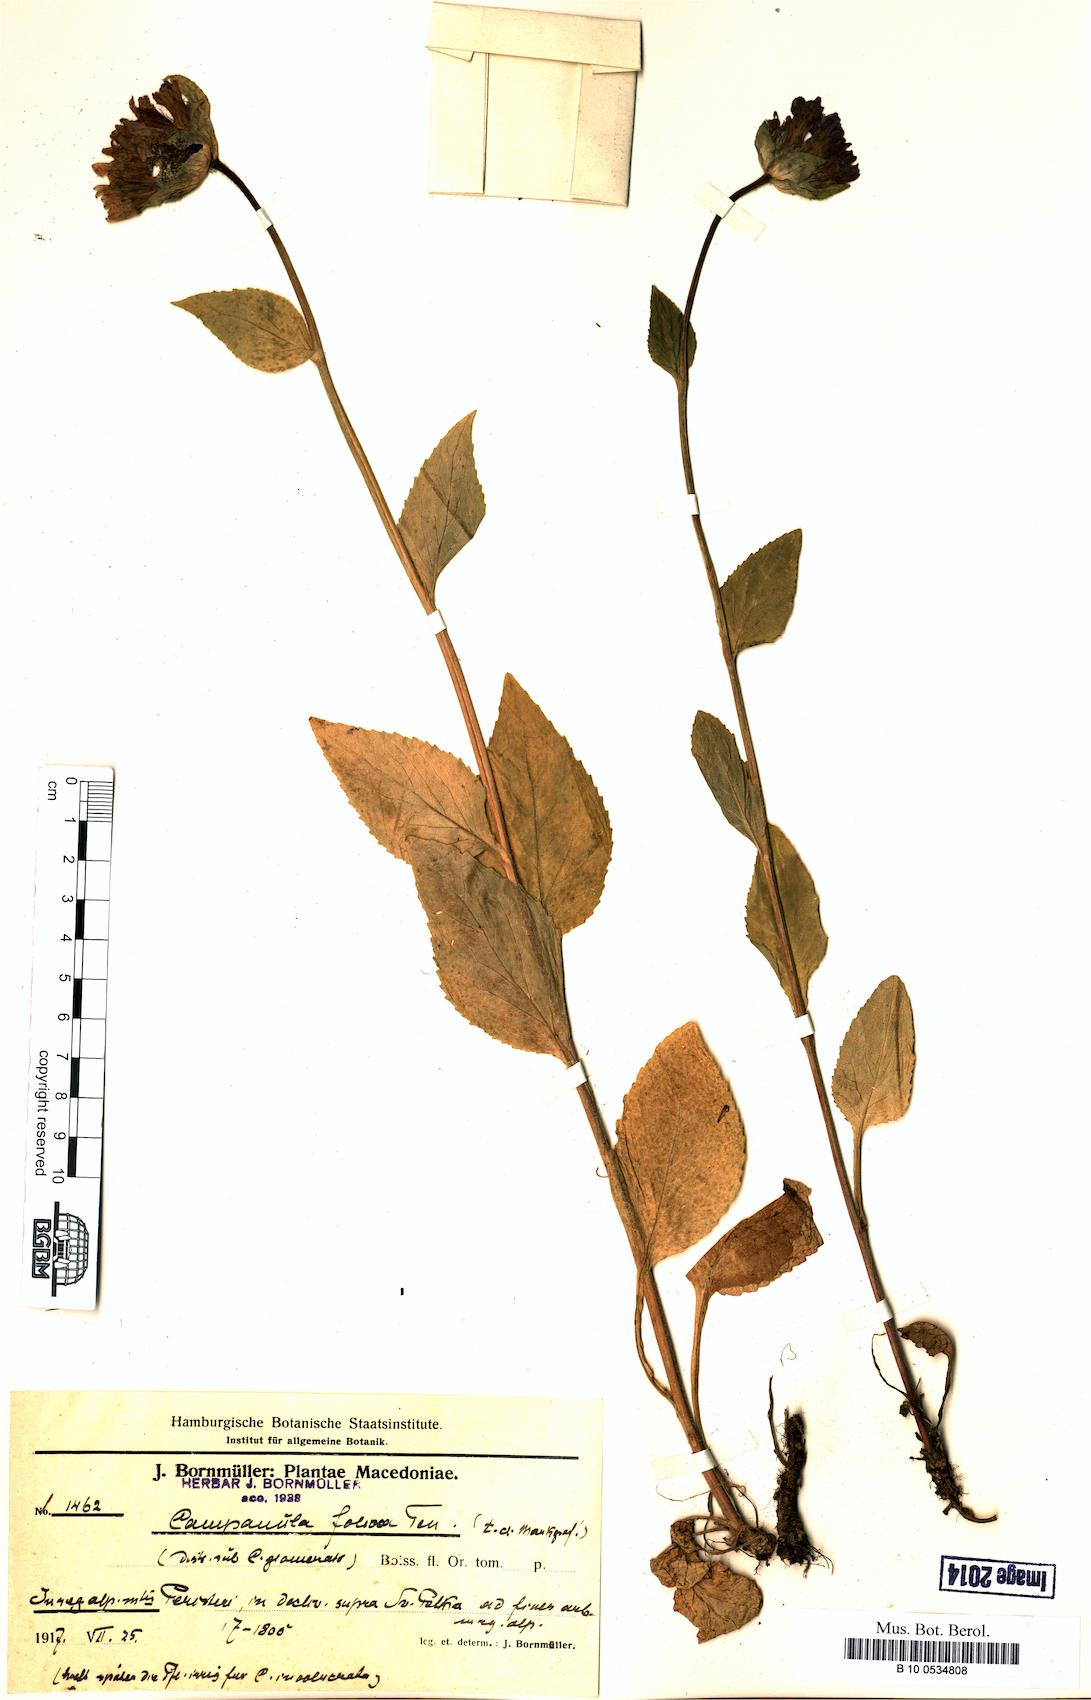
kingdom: Plantae
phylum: Tracheophyta
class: Magnoliopsida
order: Asterales
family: Campanulaceae
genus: Campanula
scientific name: Campanula foliosa
